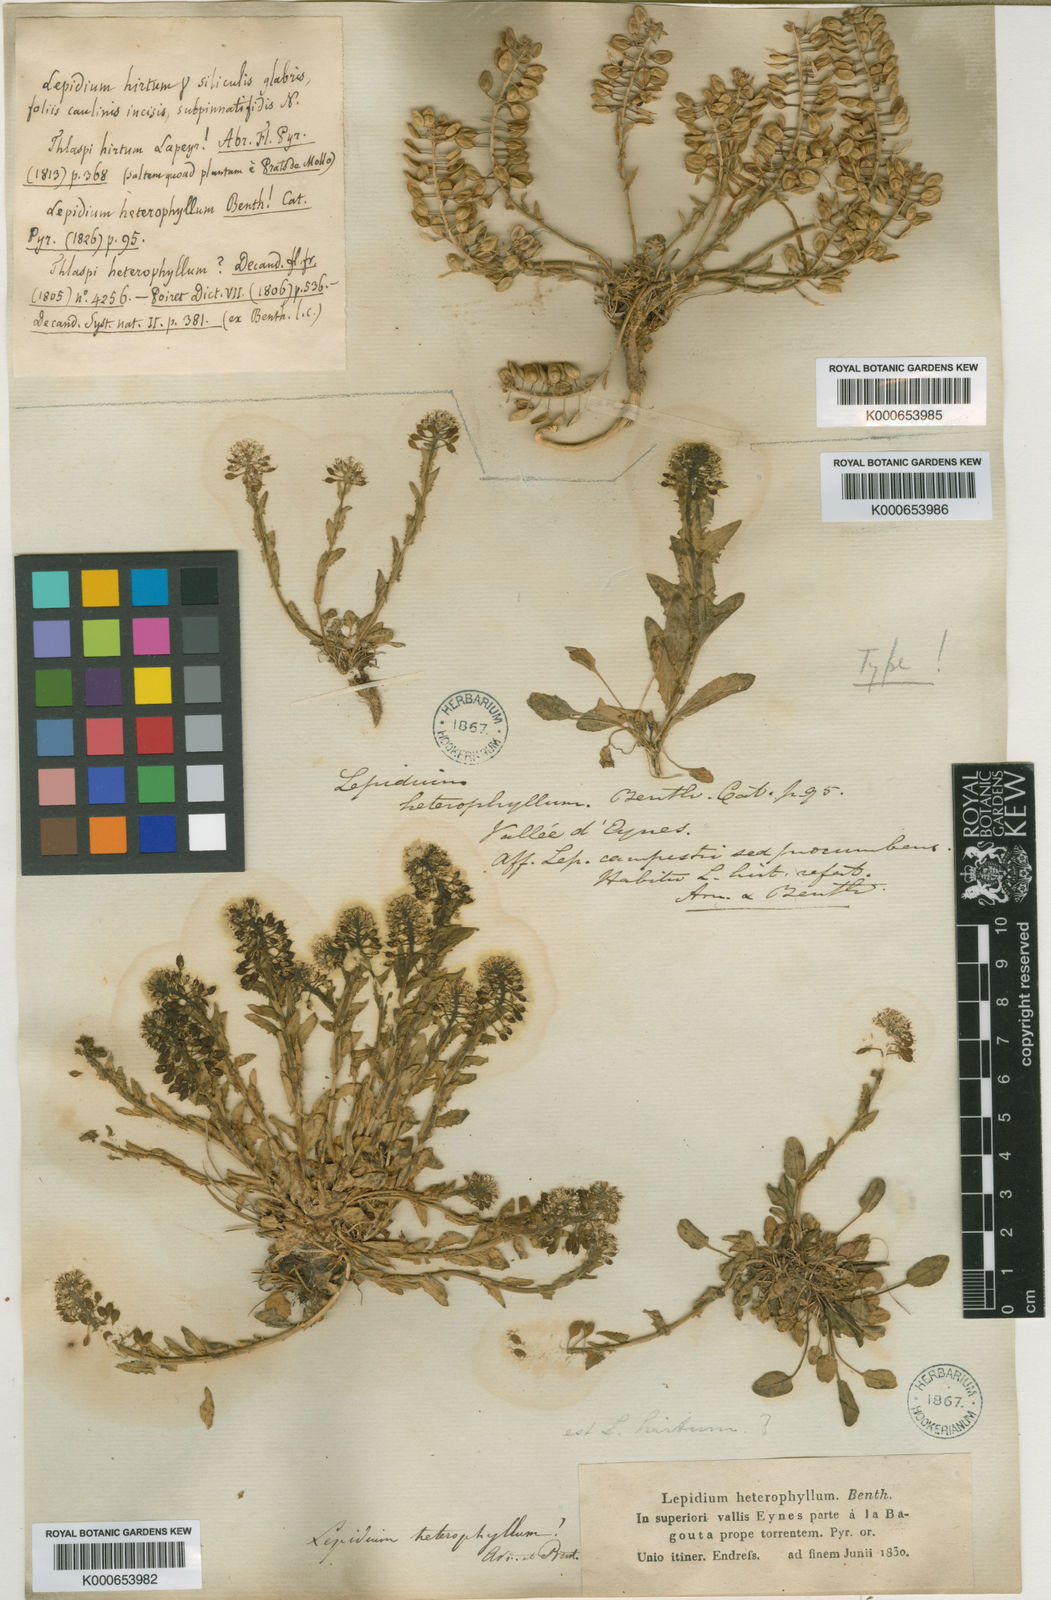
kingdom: Plantae
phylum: Tracheophyta
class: Magnoliopsida
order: Brassicales
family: Brassicaceae
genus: Lepidium
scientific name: Lepidium heterophyllum
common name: Smith's pepperwort
